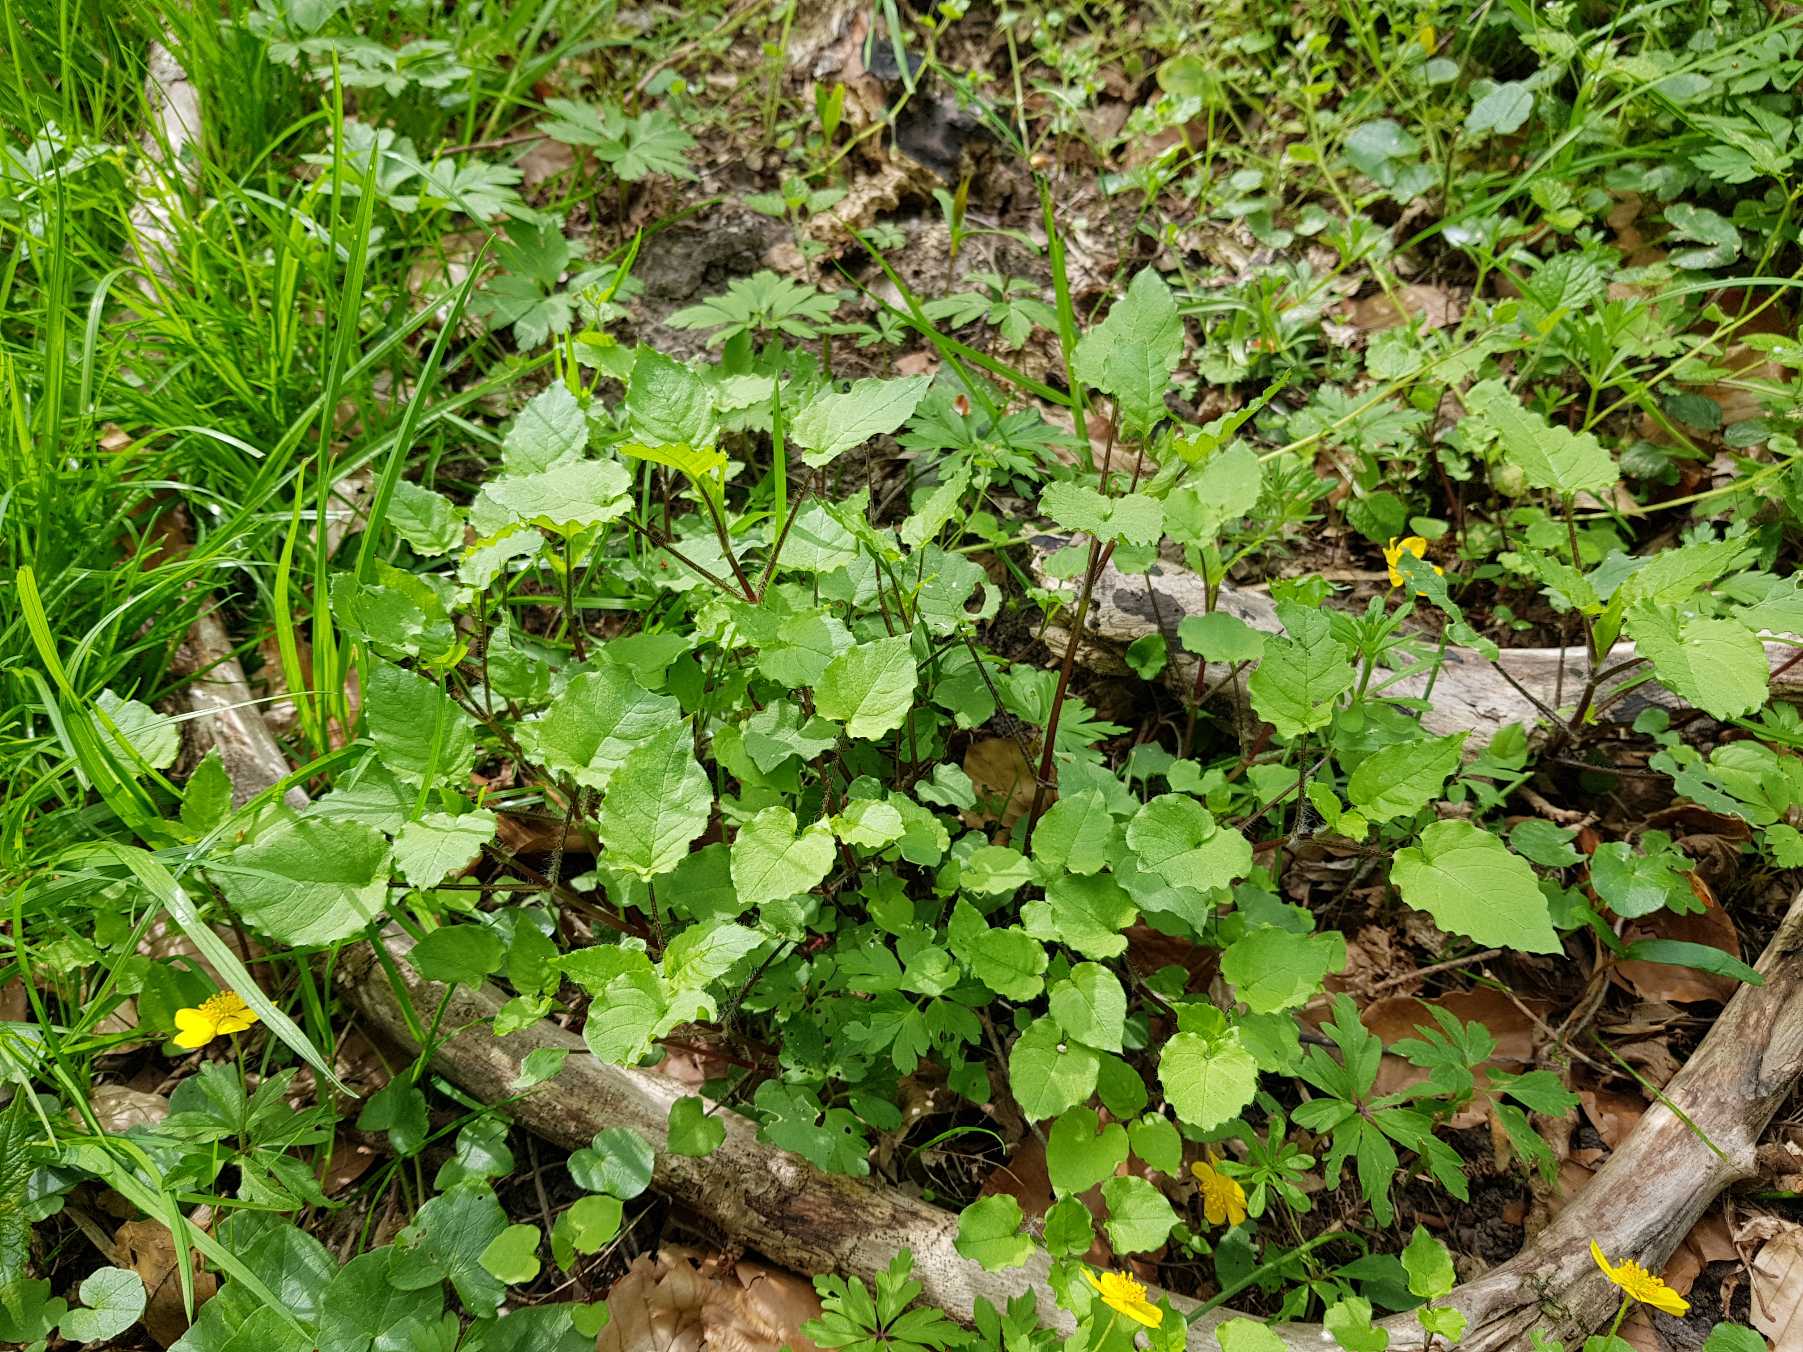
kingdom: Plantae
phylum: Tracheophyta
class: Magnoliopsida
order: Caryophyllales
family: Caryophyllaceae
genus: Stellaria
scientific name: Stellaria nemorum
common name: Lund-fladstjerne
